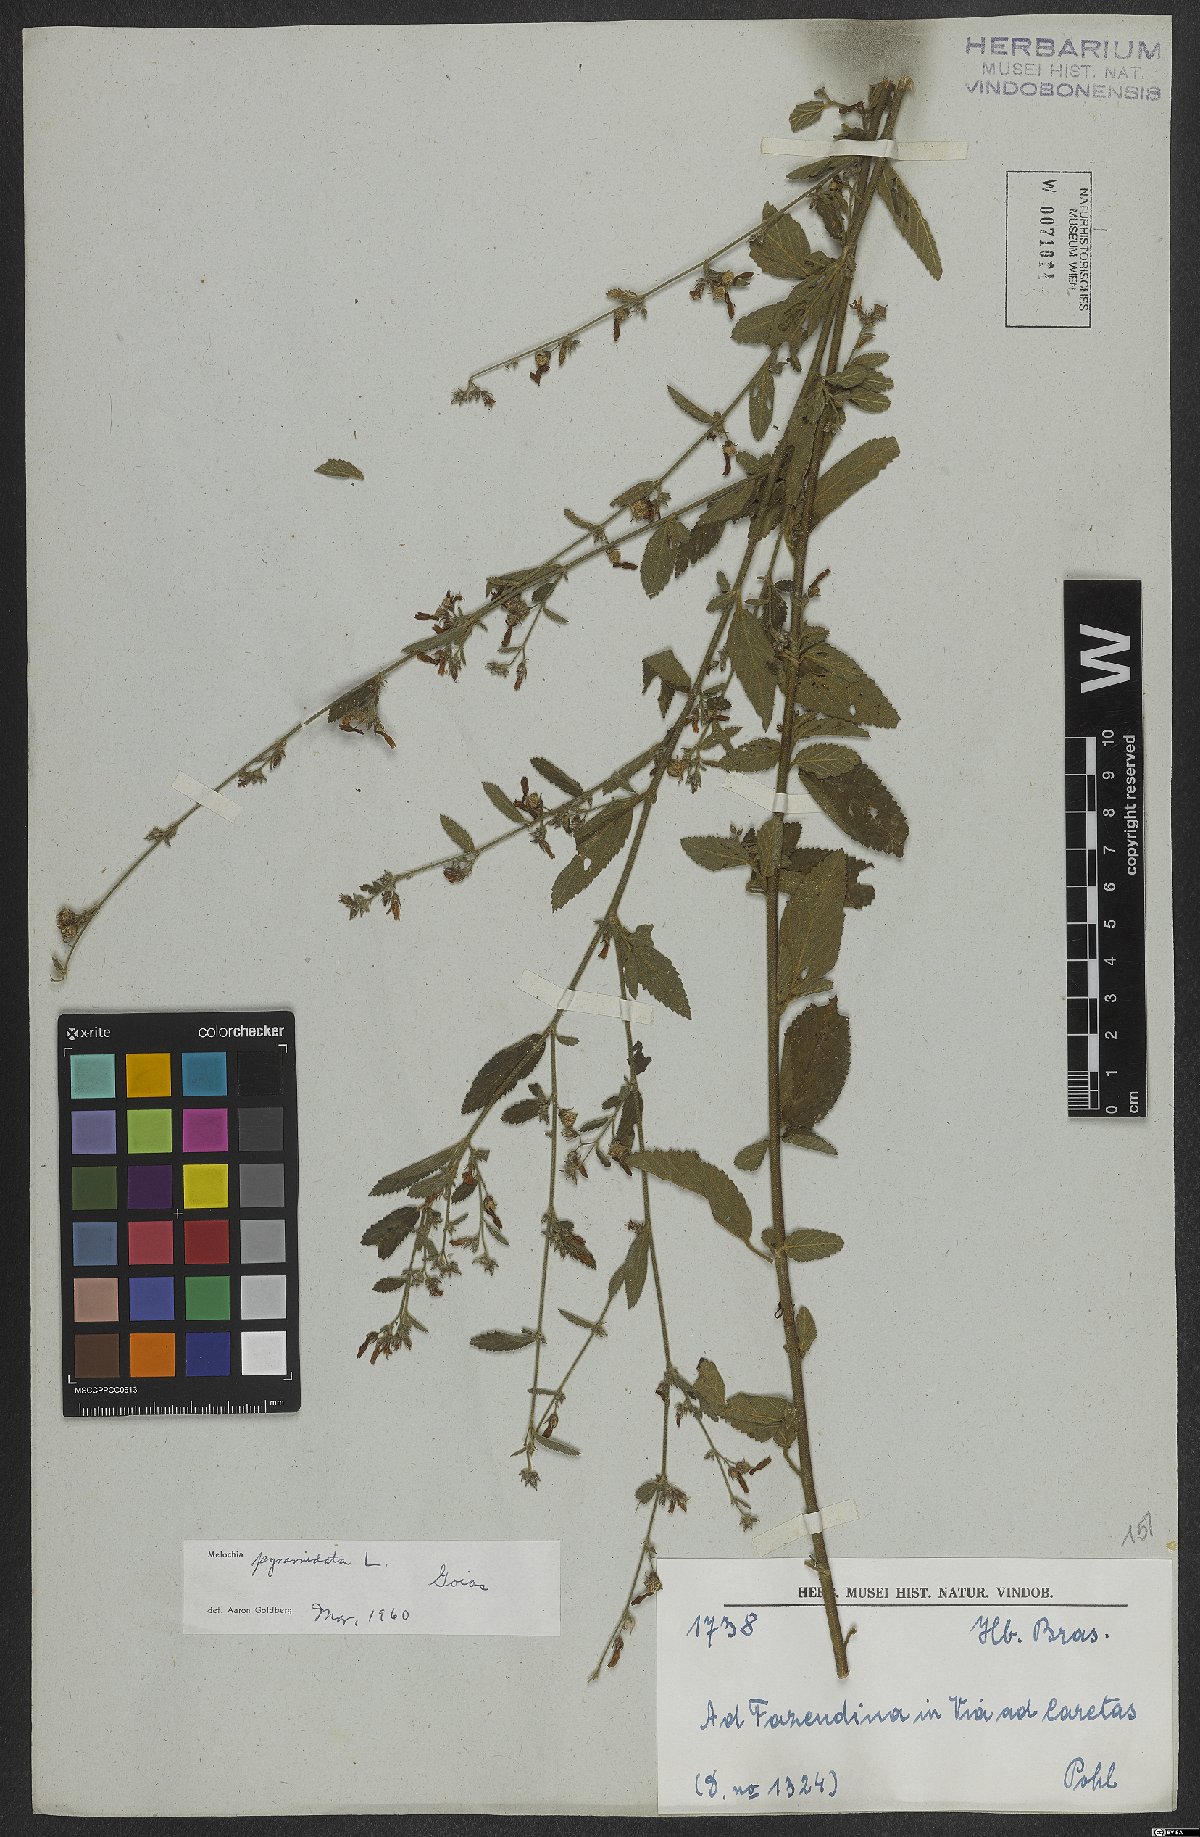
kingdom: Plantae
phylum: Tracheophyta
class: Magnoliopsida
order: Malvales
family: Malvaceae
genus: Melochia
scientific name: Melochia pyramidata
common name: Pyramidflower
